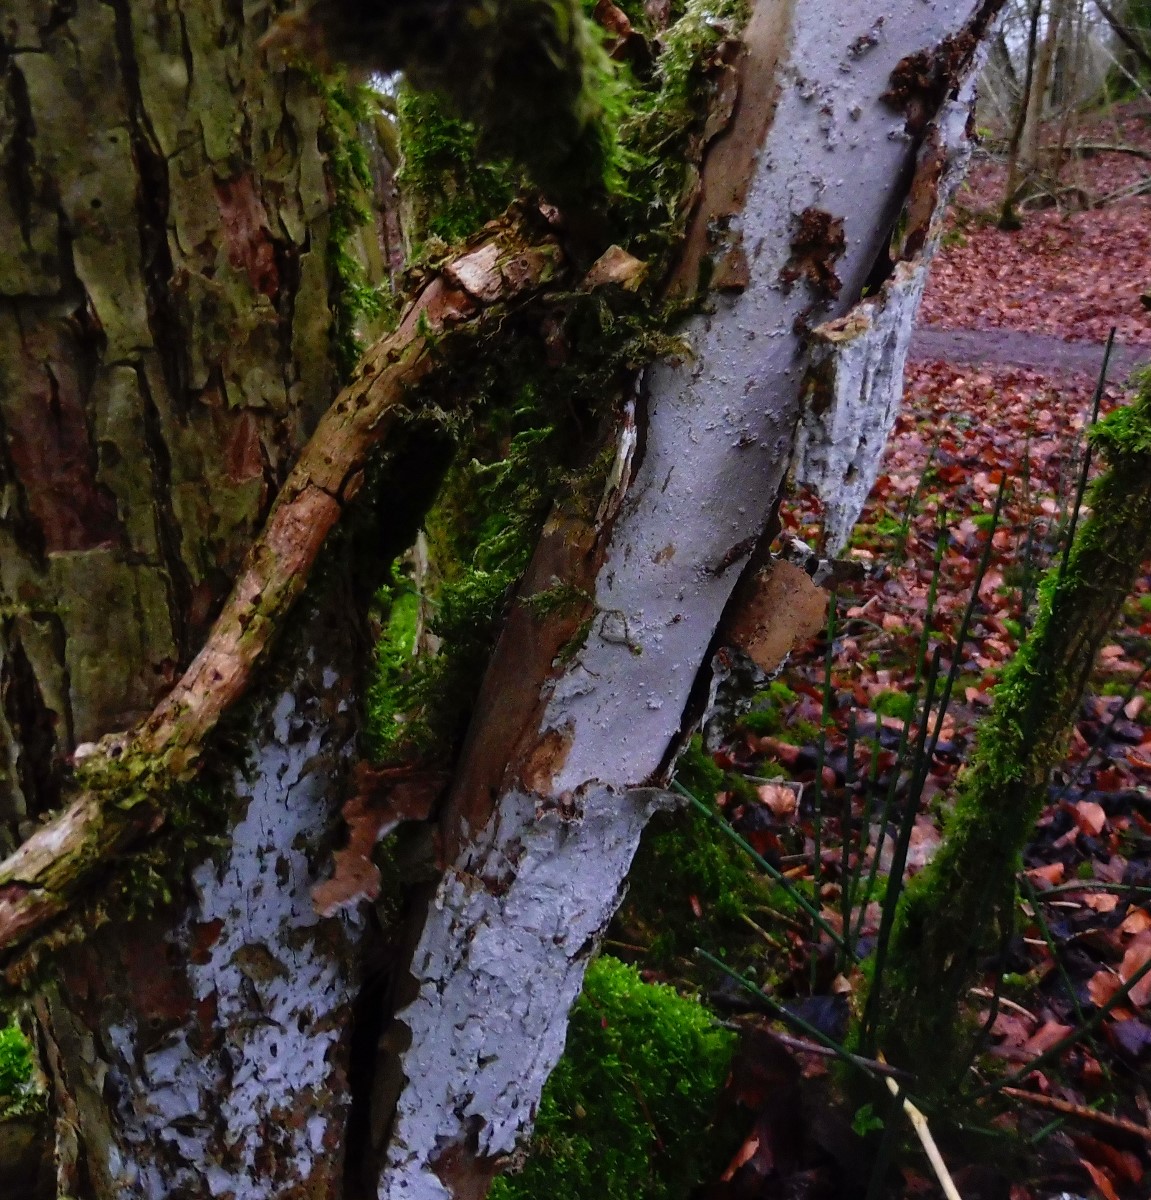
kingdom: Fungi
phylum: Basidiomycota
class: Agaricomycetes
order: Corticiales
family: Corticiaceae
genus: Lyomyces
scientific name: Lyomyces sambuci
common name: almindelig hyldehinde
